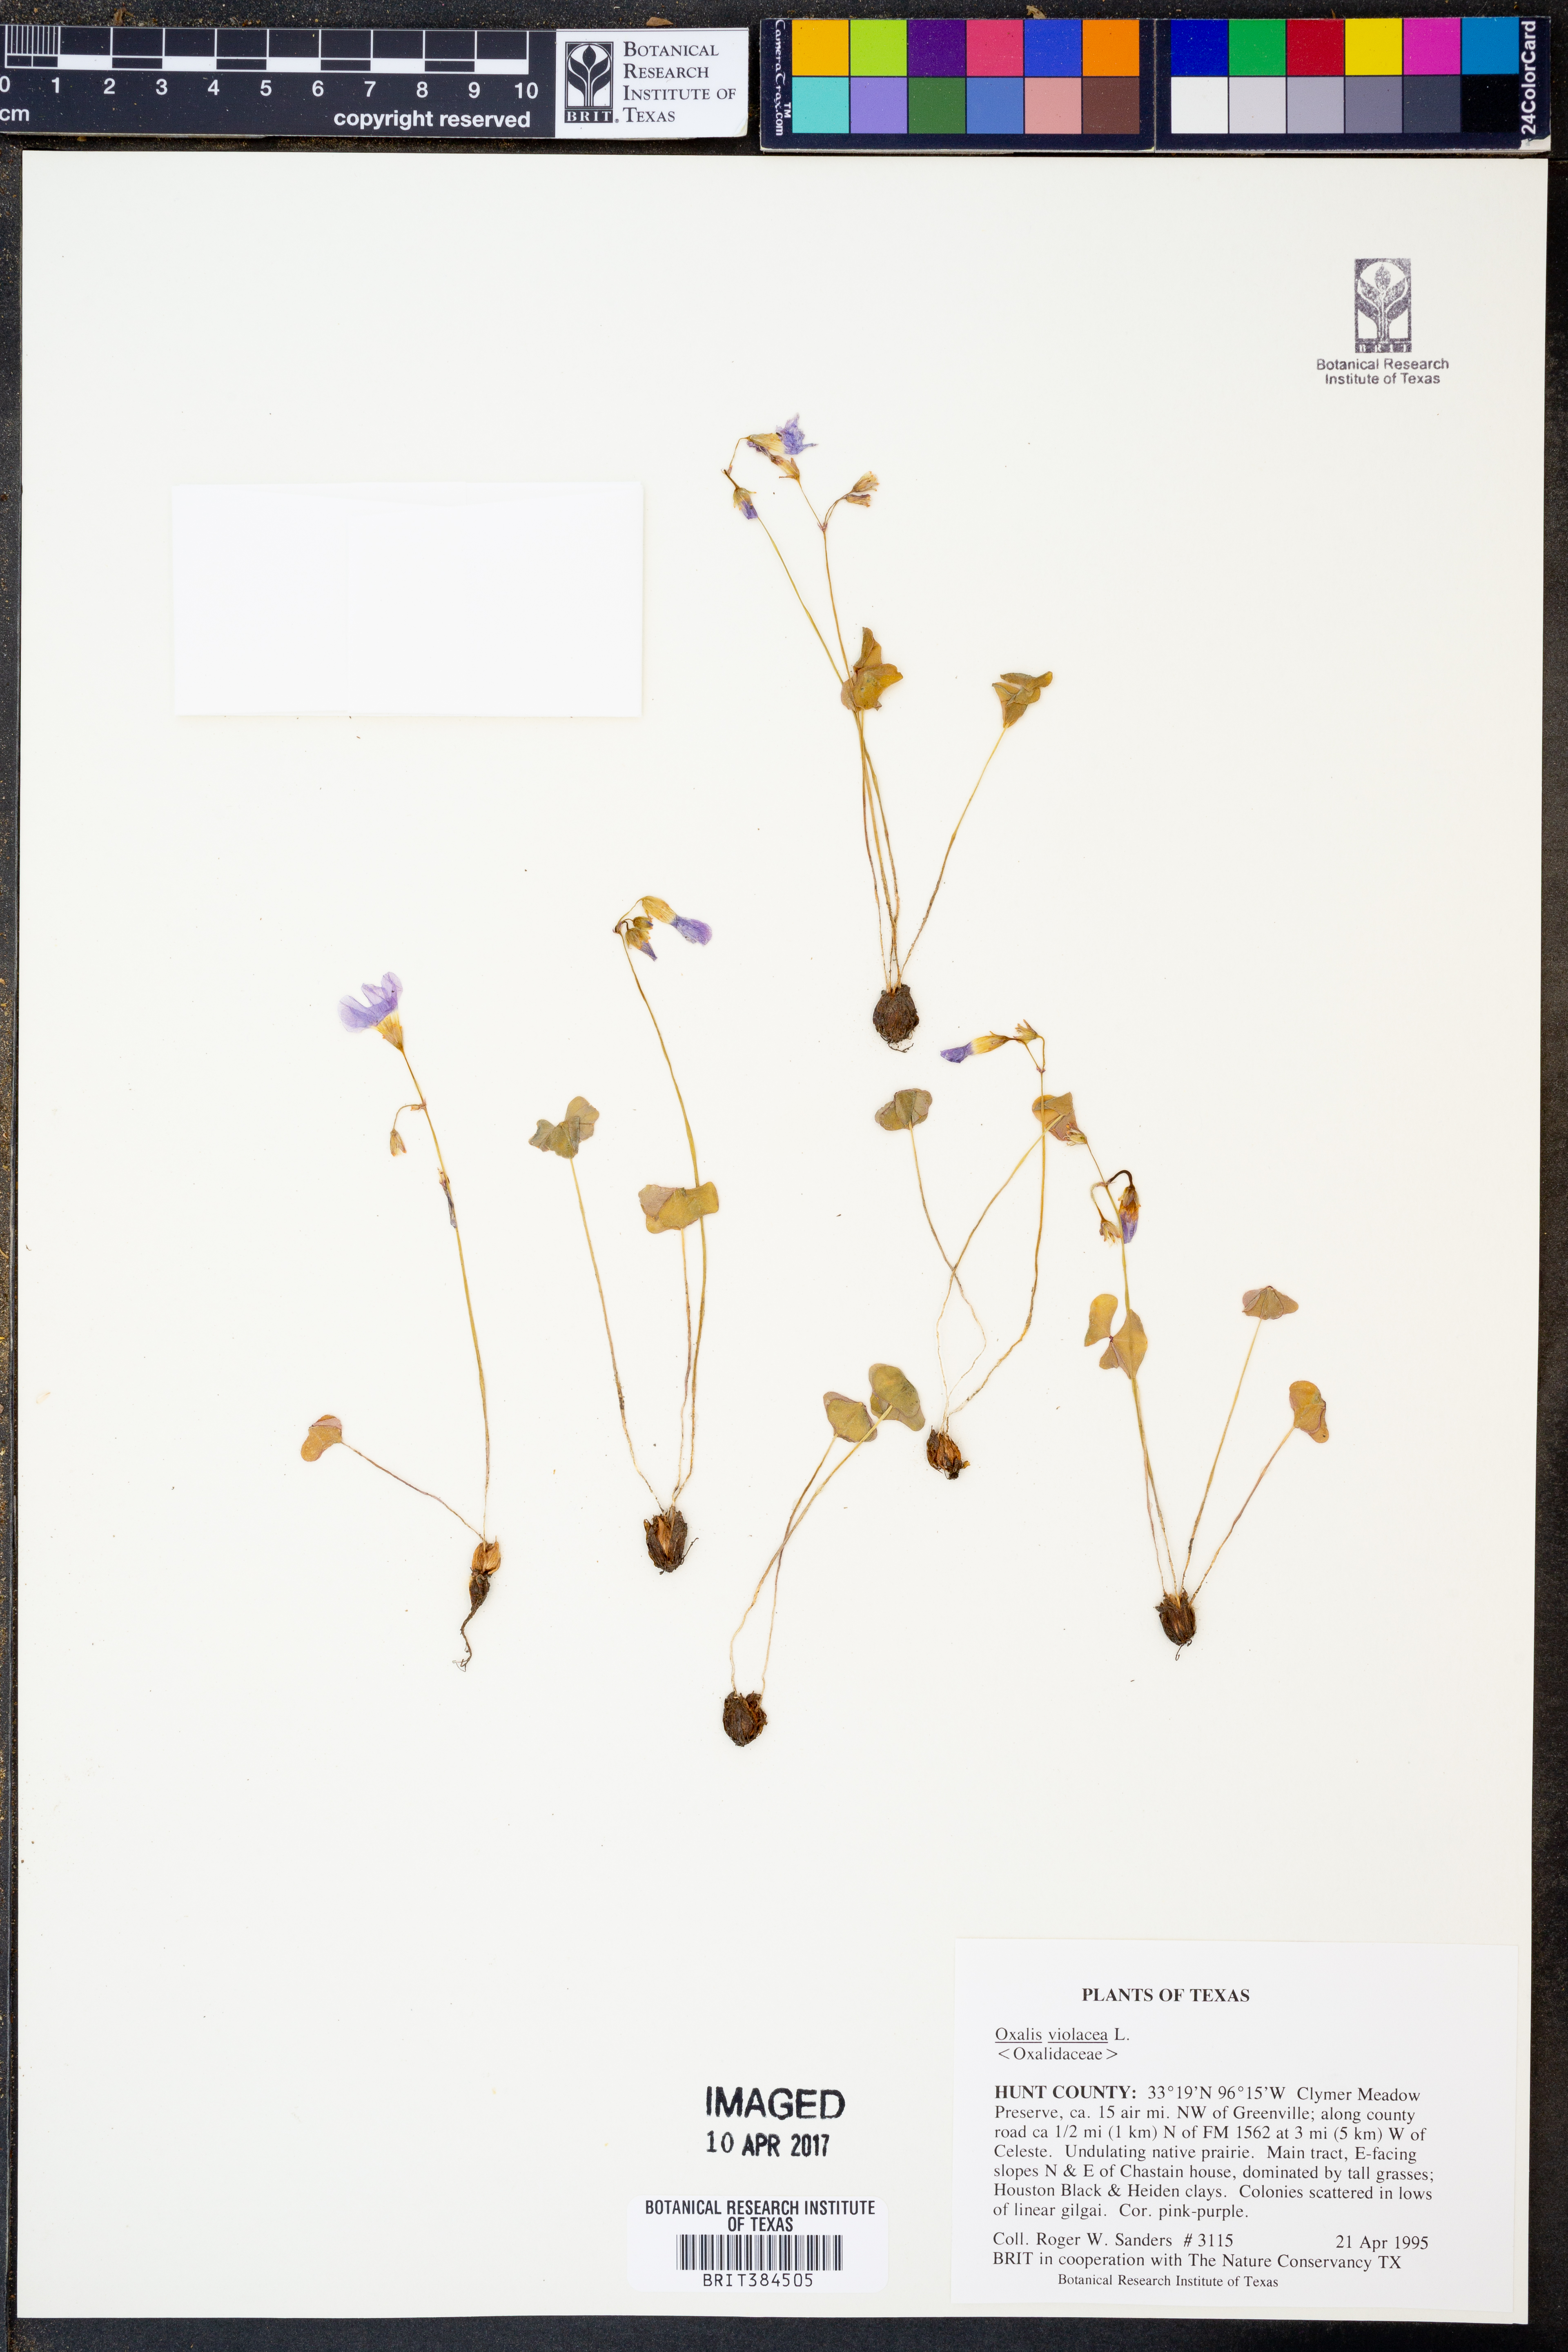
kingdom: Plantae
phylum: Tracheophyta
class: Magnoliopsida
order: Oxalidales
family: Oxalidaceae
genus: Oxalis
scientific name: Oxalis violacea
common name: Violet wood-sorrel
